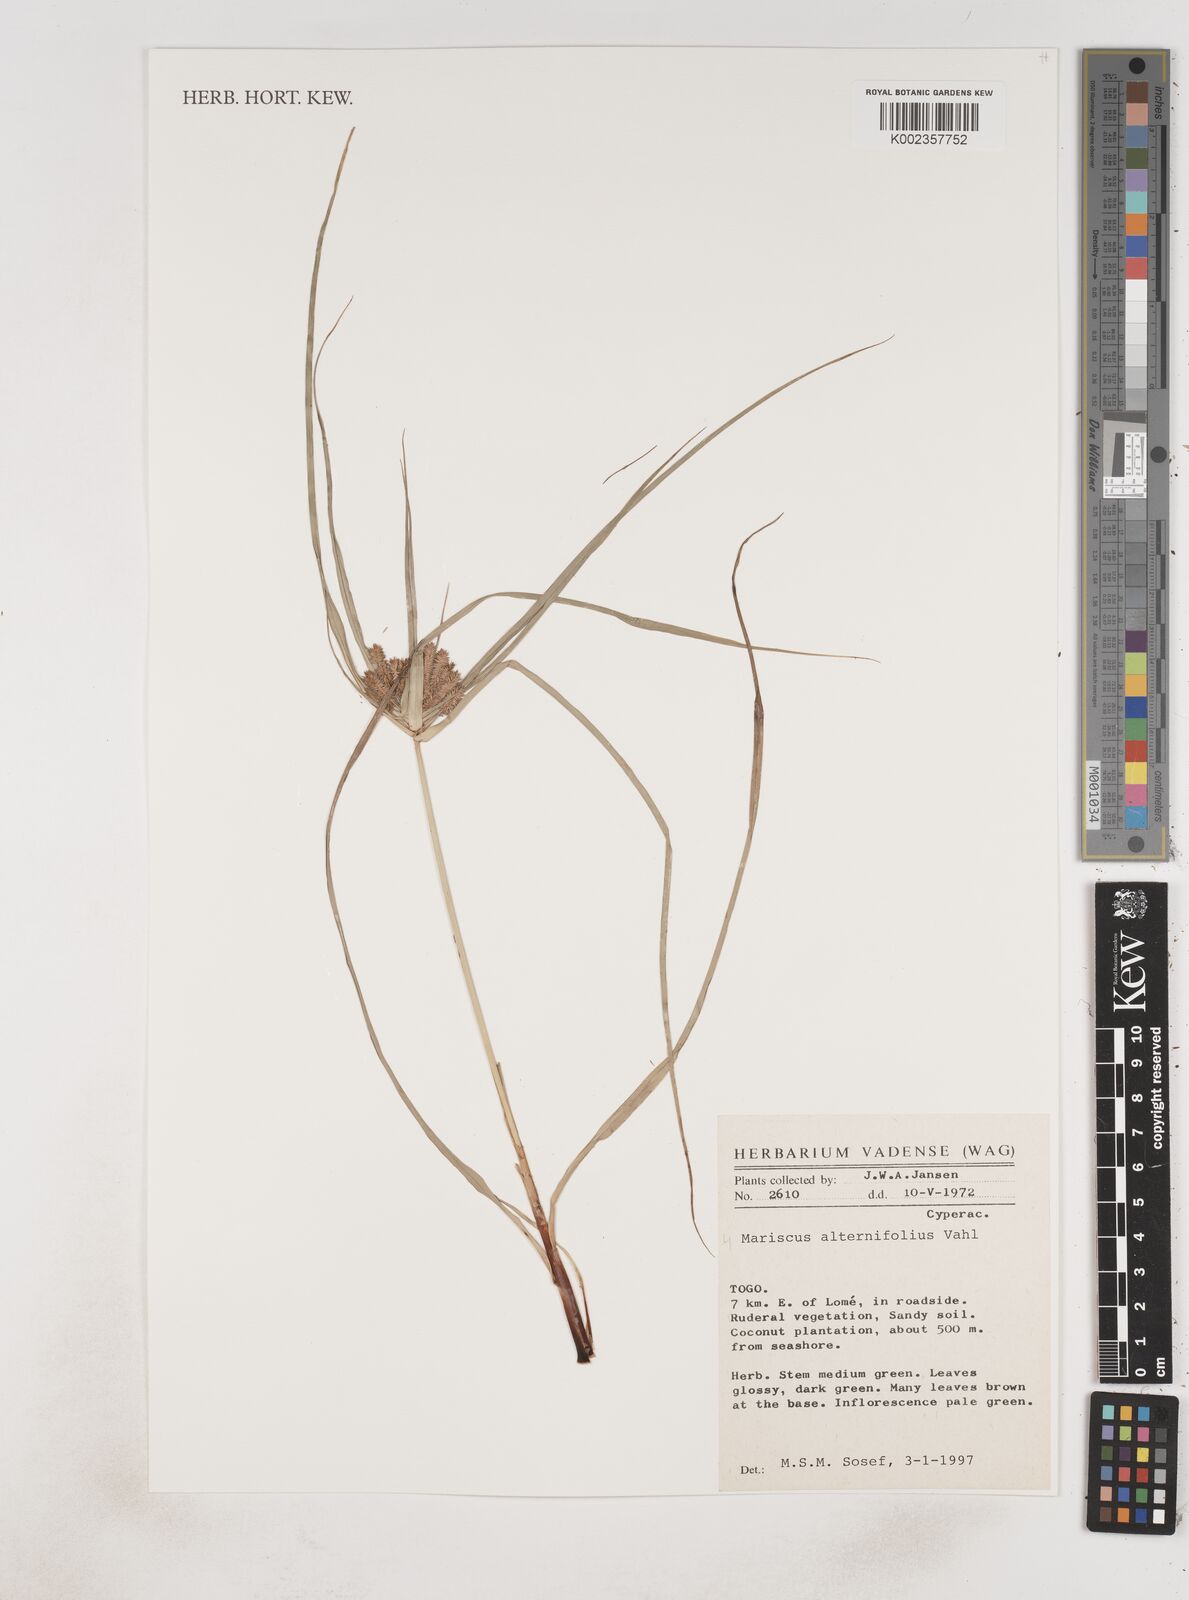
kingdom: Plantae
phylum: Tracheophyta
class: Liliopsida
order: Poales
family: Cyperaceae
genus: Cyperus
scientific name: Cyperus alternifolius
